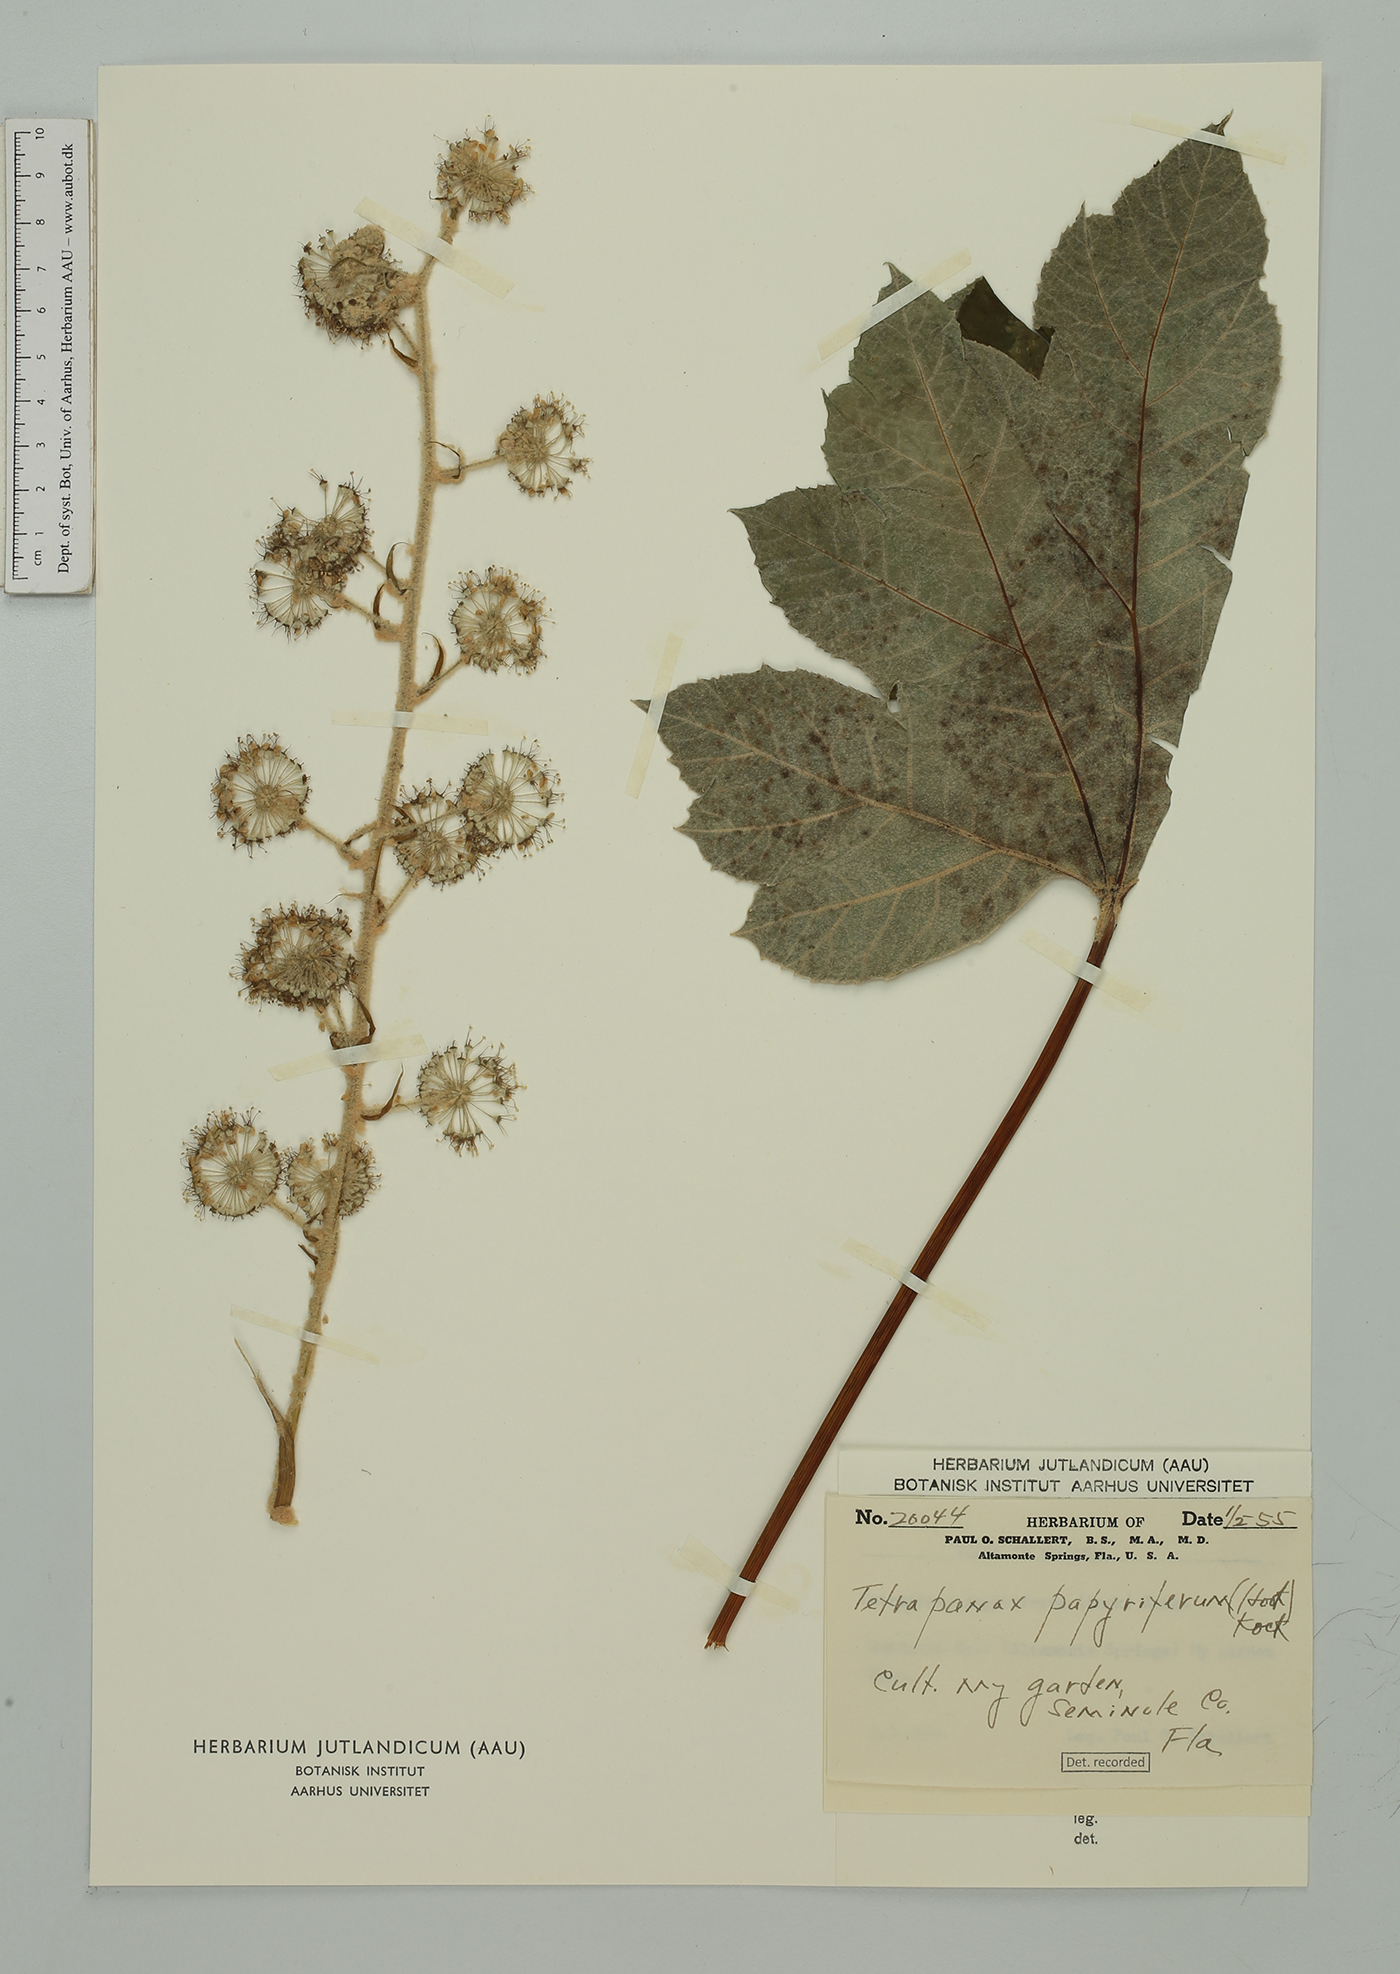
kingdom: Plantae
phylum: Tracheophyta
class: Magnoliopsida
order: Apiales
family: Araliaceae
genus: Tetrapanax
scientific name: Tetrapanax papyrifer
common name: Rice-paper plant
